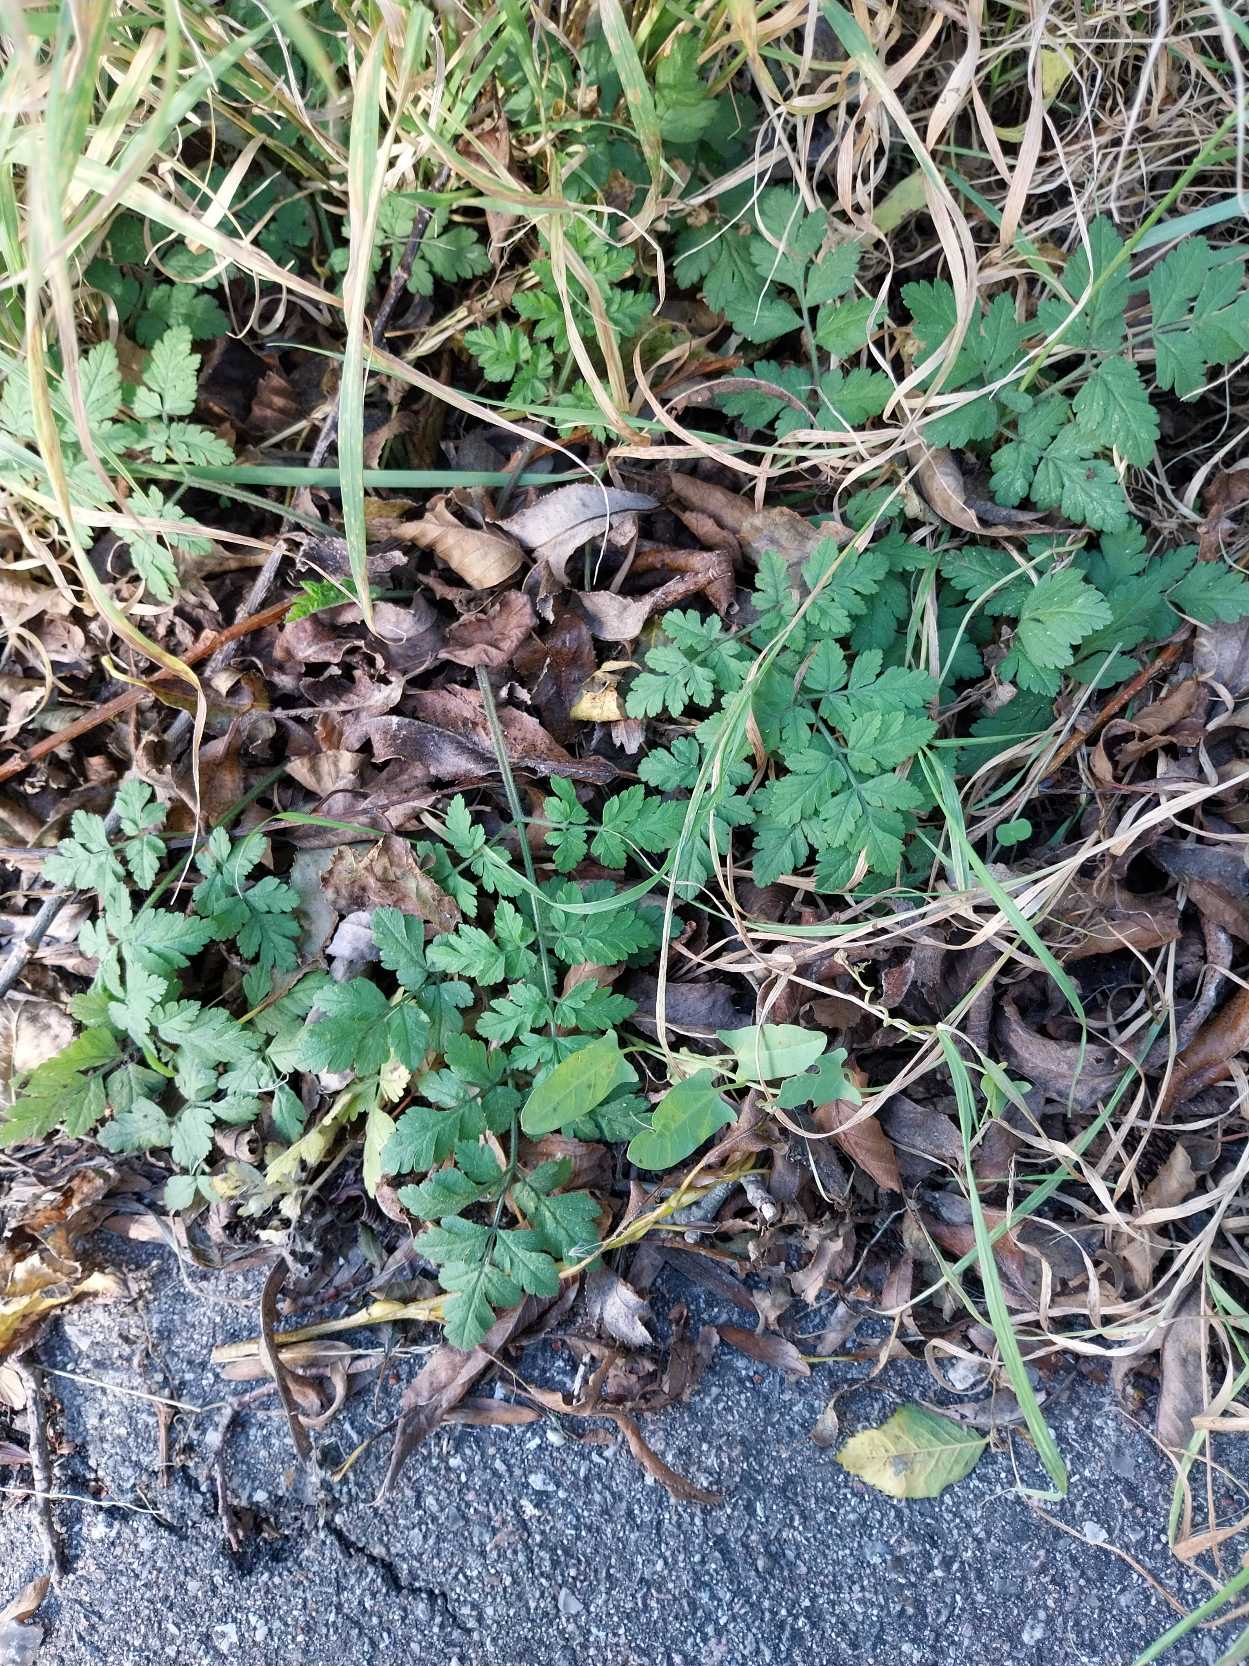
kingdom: Plantae
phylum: Tracheophyta
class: Magnoliopsida
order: Apiales
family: Apiaceae
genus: Chaerophyllum
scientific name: Chaerophyllum temulum
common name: Almindelig hulsvøb
